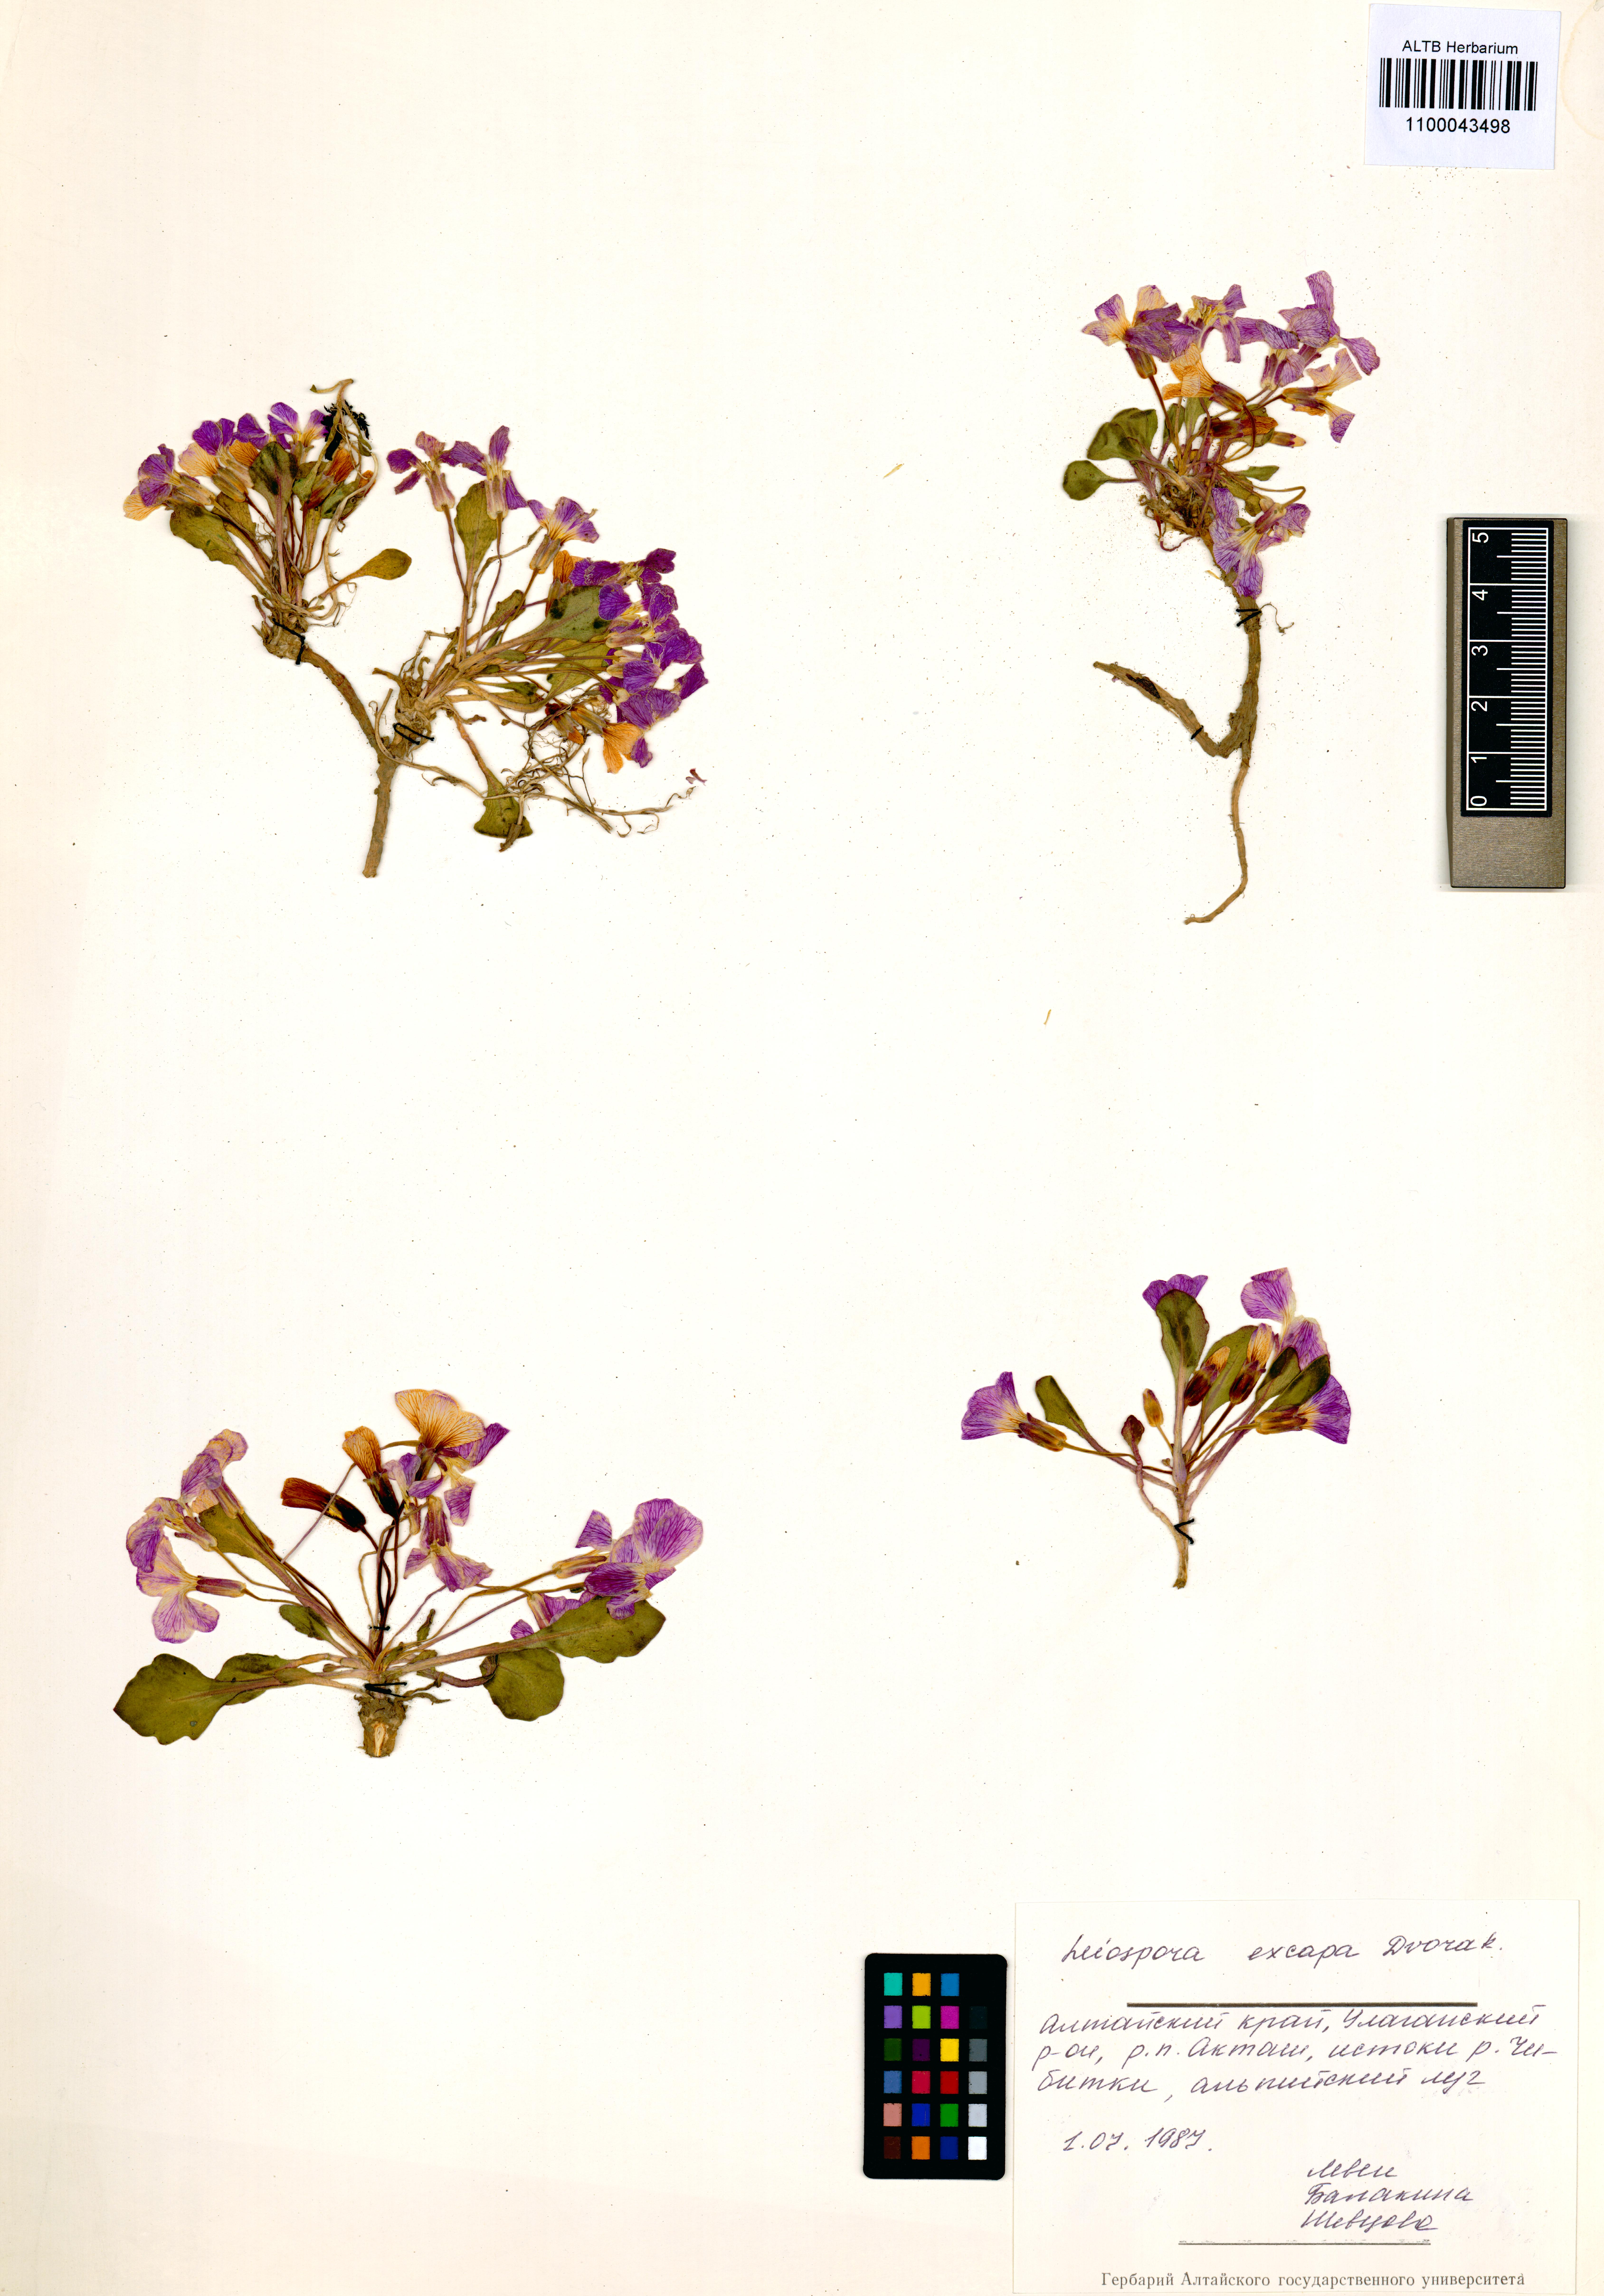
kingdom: Plantae
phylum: Tracheophyta
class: Magnoliopsida
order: Brassicales
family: Brassicaceae
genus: Leiospora
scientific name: Leiospora exscapa
